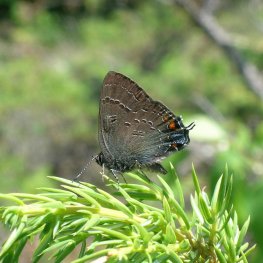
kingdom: Animalia
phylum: Arthropoda
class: Insecta
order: Lepidoptera
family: Lycaenidae
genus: Satyrium
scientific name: Satyrium calanus
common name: Banded Hairstreak
